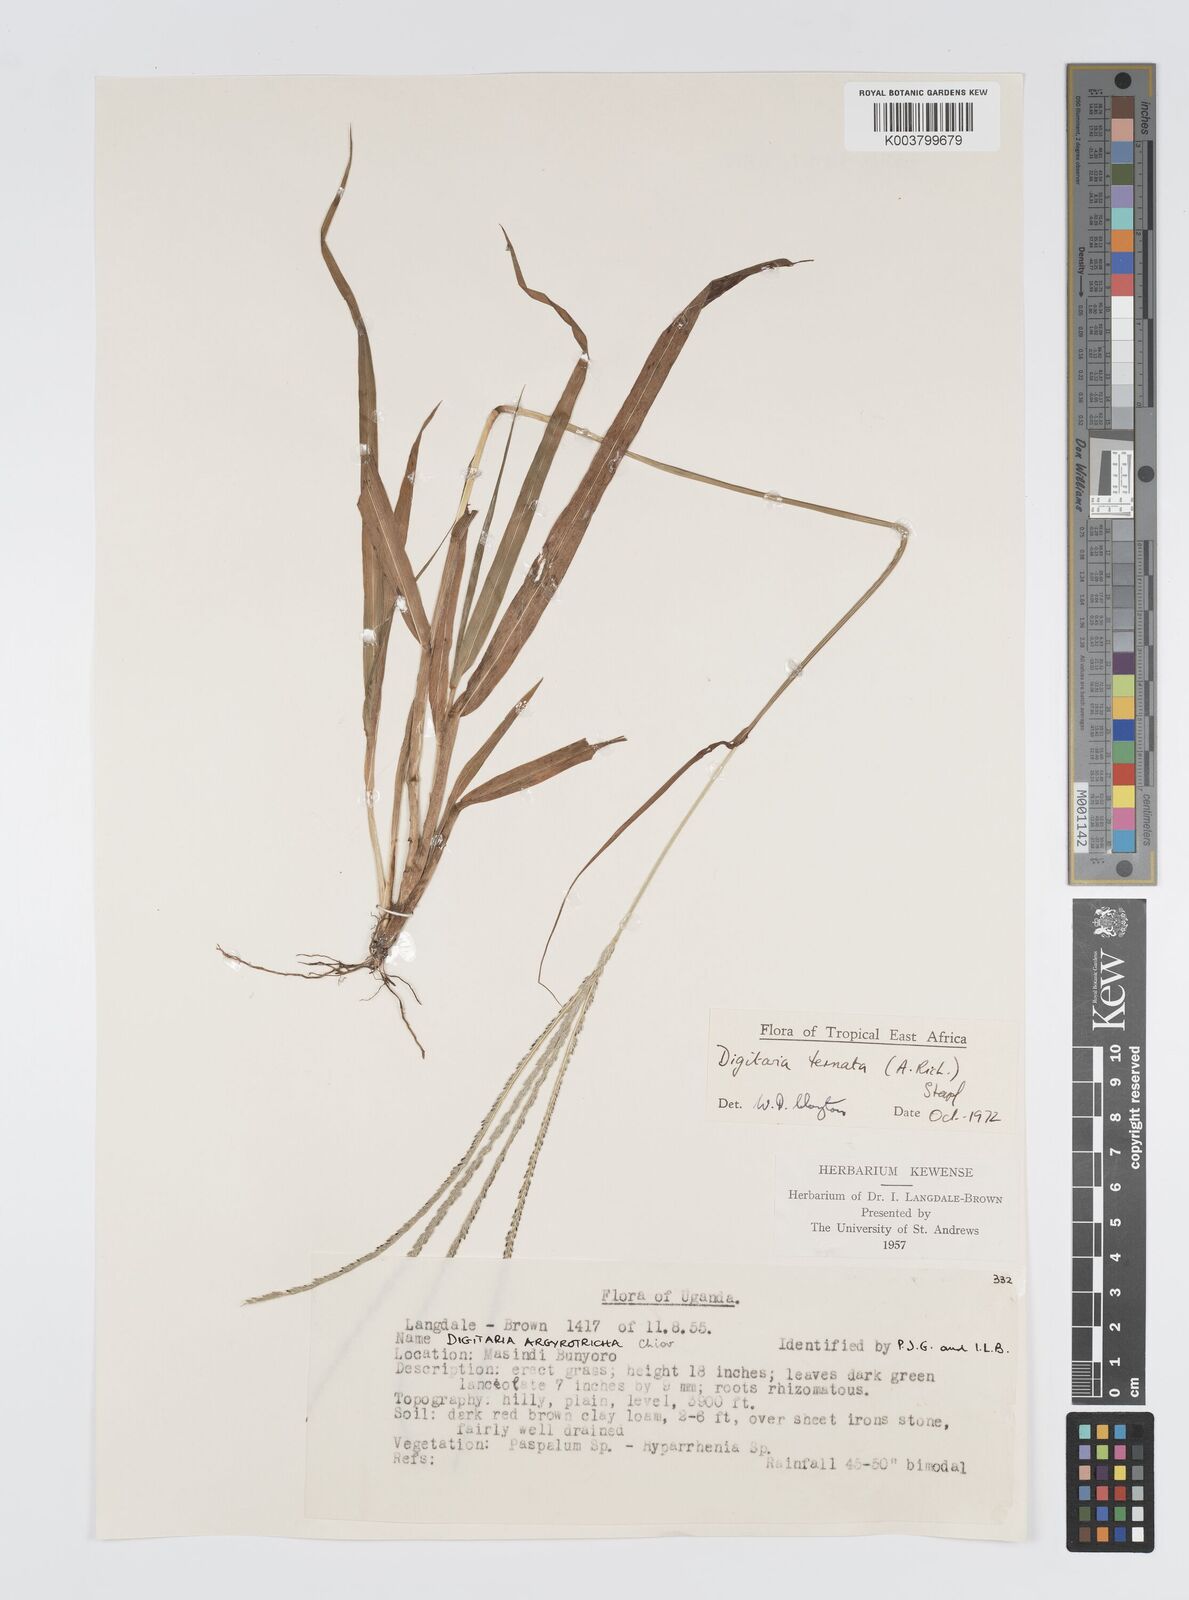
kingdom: Plantae
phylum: Tracheophyta
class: Liliopsida
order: Poales
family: Poaceae
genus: Digitaria
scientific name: Digitaria ternata
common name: Blackseed crabgrass
